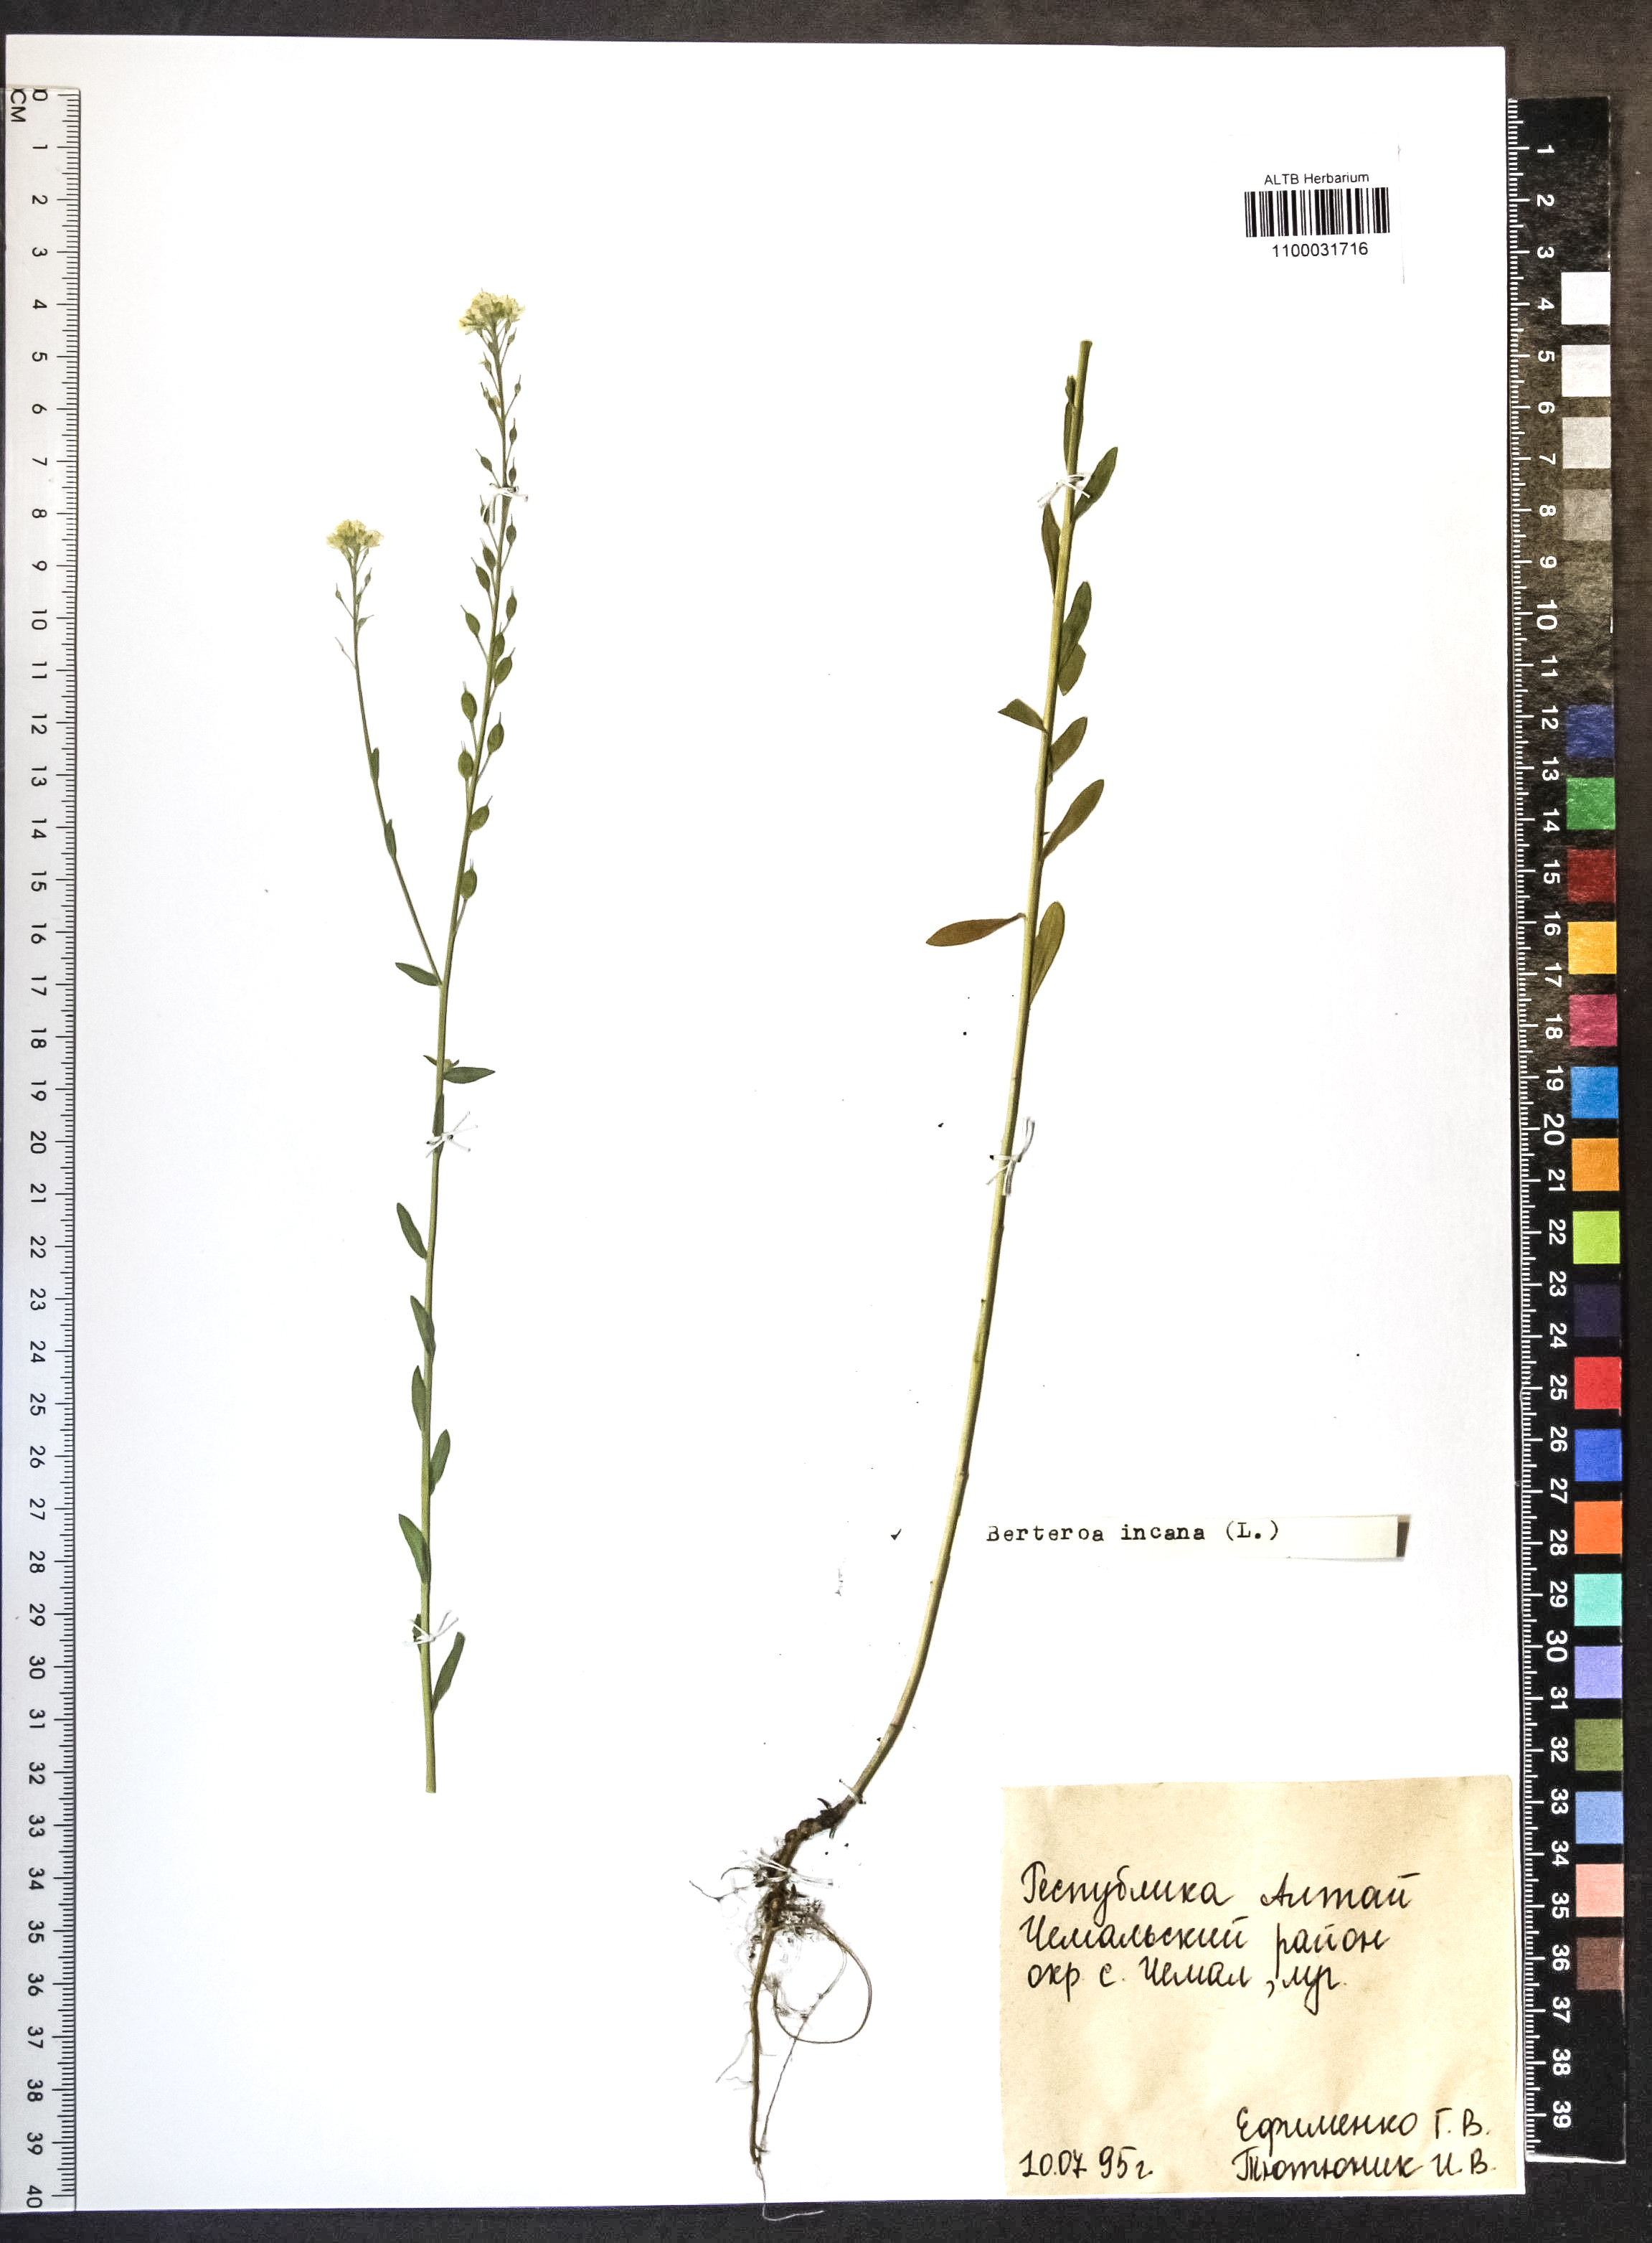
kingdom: Plantae
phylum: Tracheophyta
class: Magnoliopsida
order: Brassicales
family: Brassicaceae
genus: Berteroa
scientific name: Berteroa incana
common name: Hoary alison
